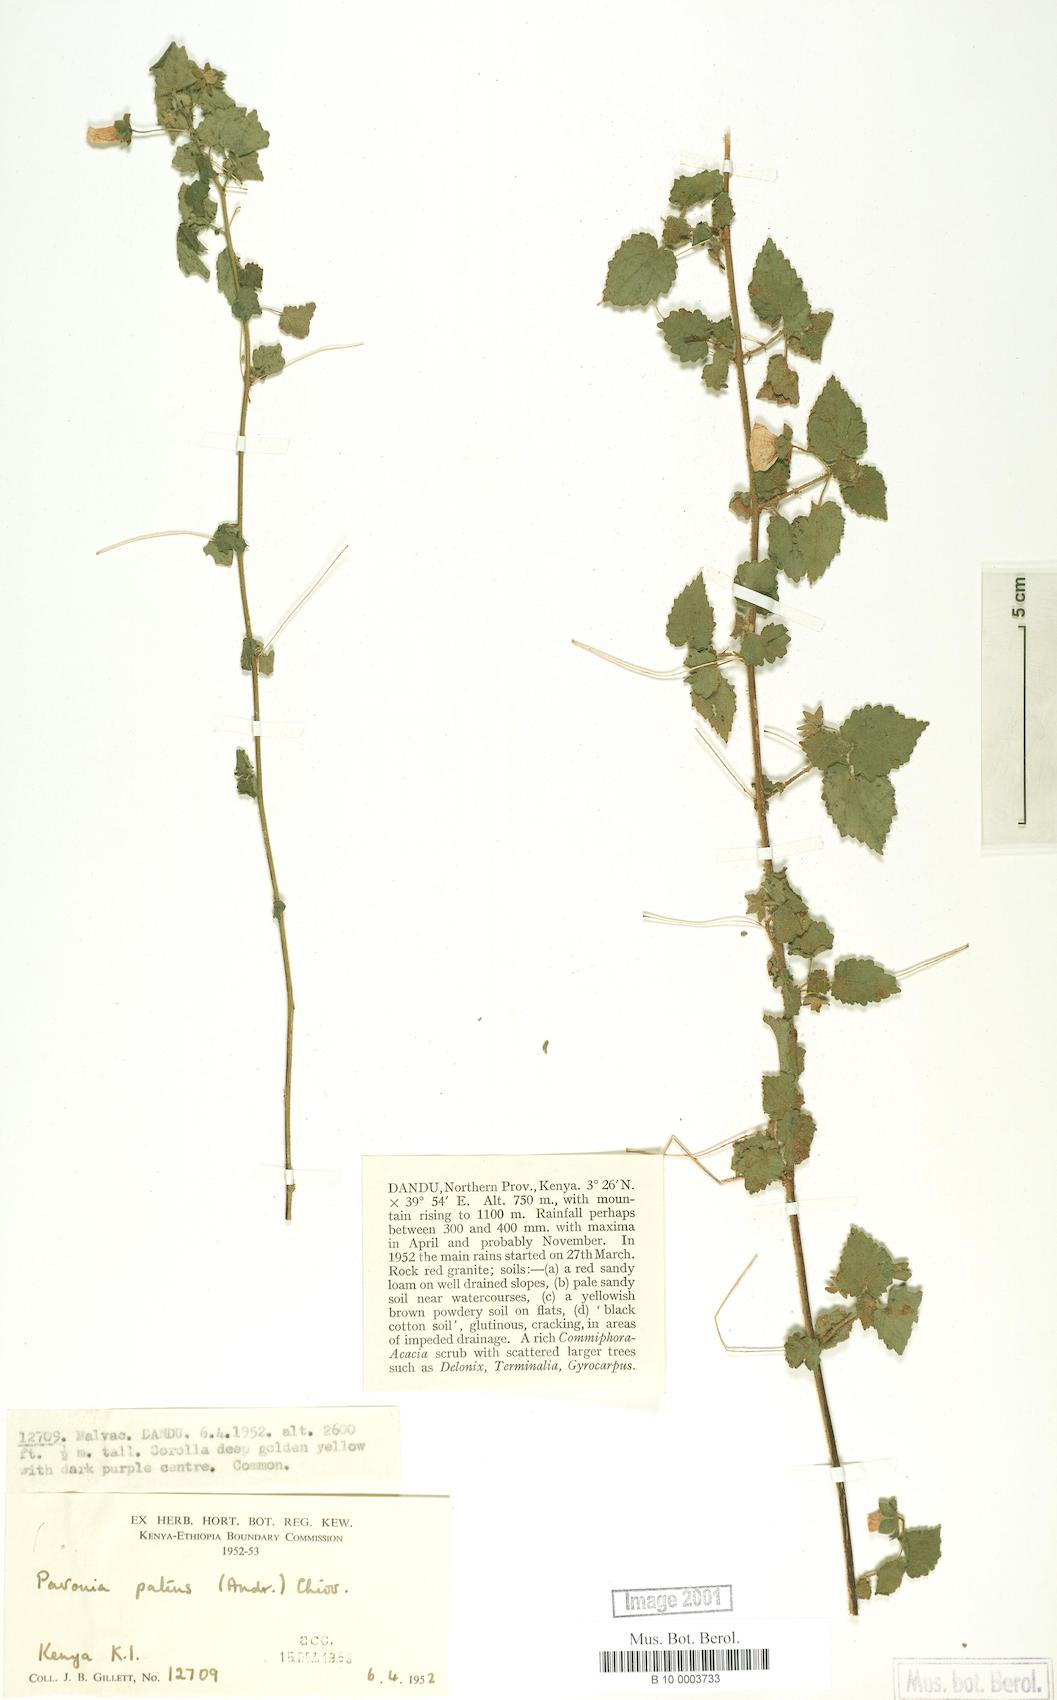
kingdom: Plantae
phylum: Tracheophyta
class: Magnoliopsida
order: Malvales
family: Malvaceae
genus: Abutilon
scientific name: Abutilon mauritianum
